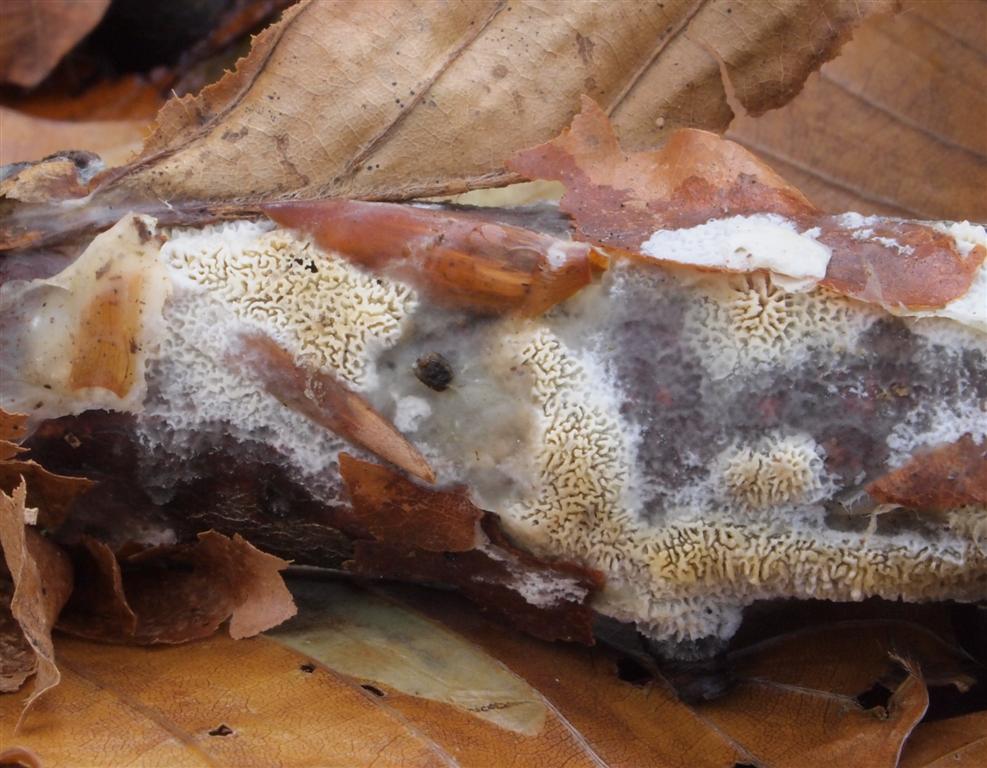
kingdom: Fungi
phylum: Basidiomycota
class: Agaricomycetes
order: Hymenochaetales
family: Schizoporaceae
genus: Xylodon
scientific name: Xylodon subtropicus
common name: labyrint-tandsvamp
